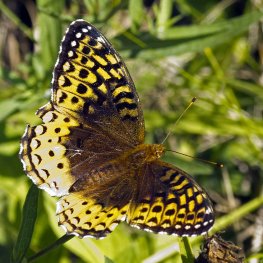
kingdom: Animalia
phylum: Arthropoda
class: Insecta
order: Lepidoptera
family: Nymphalidae
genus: Speyeria
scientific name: Speyeria cybele
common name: Great Spangled Fritillary
